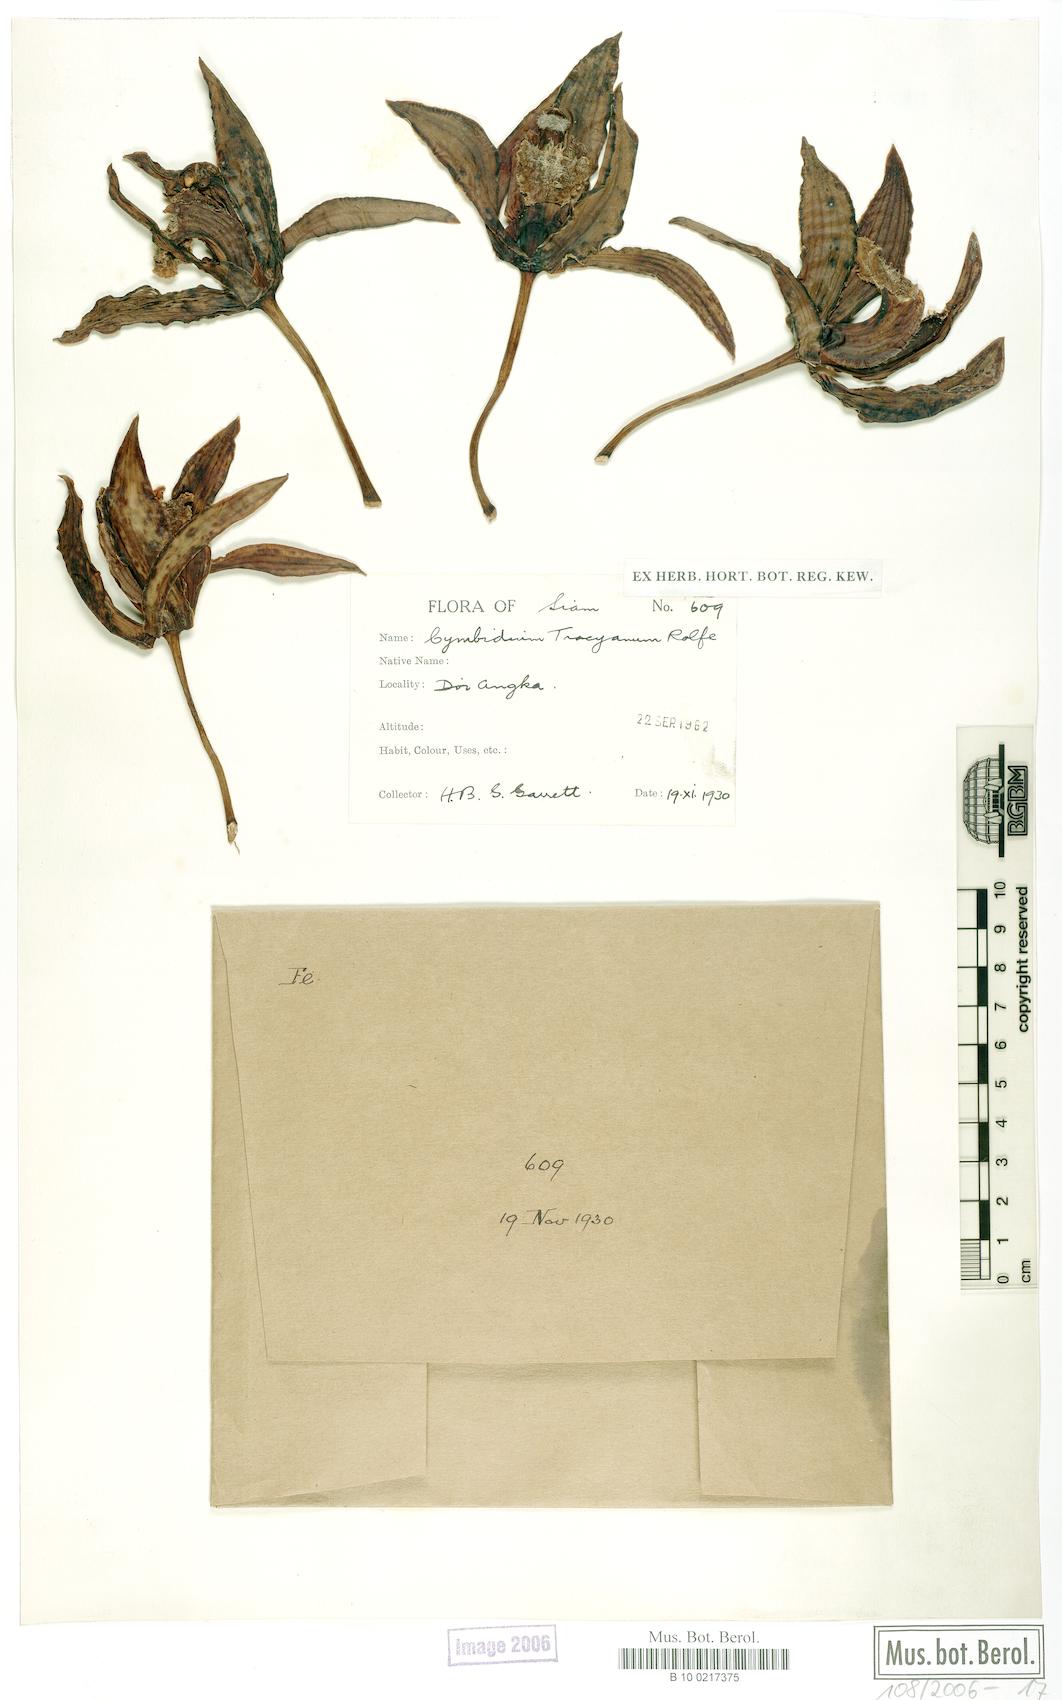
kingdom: Plantae
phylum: Tracheophyta
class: Liliopsida
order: Asparagales
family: Orchidaceae
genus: Cymbidium
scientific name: Cymbidium tracyanum
